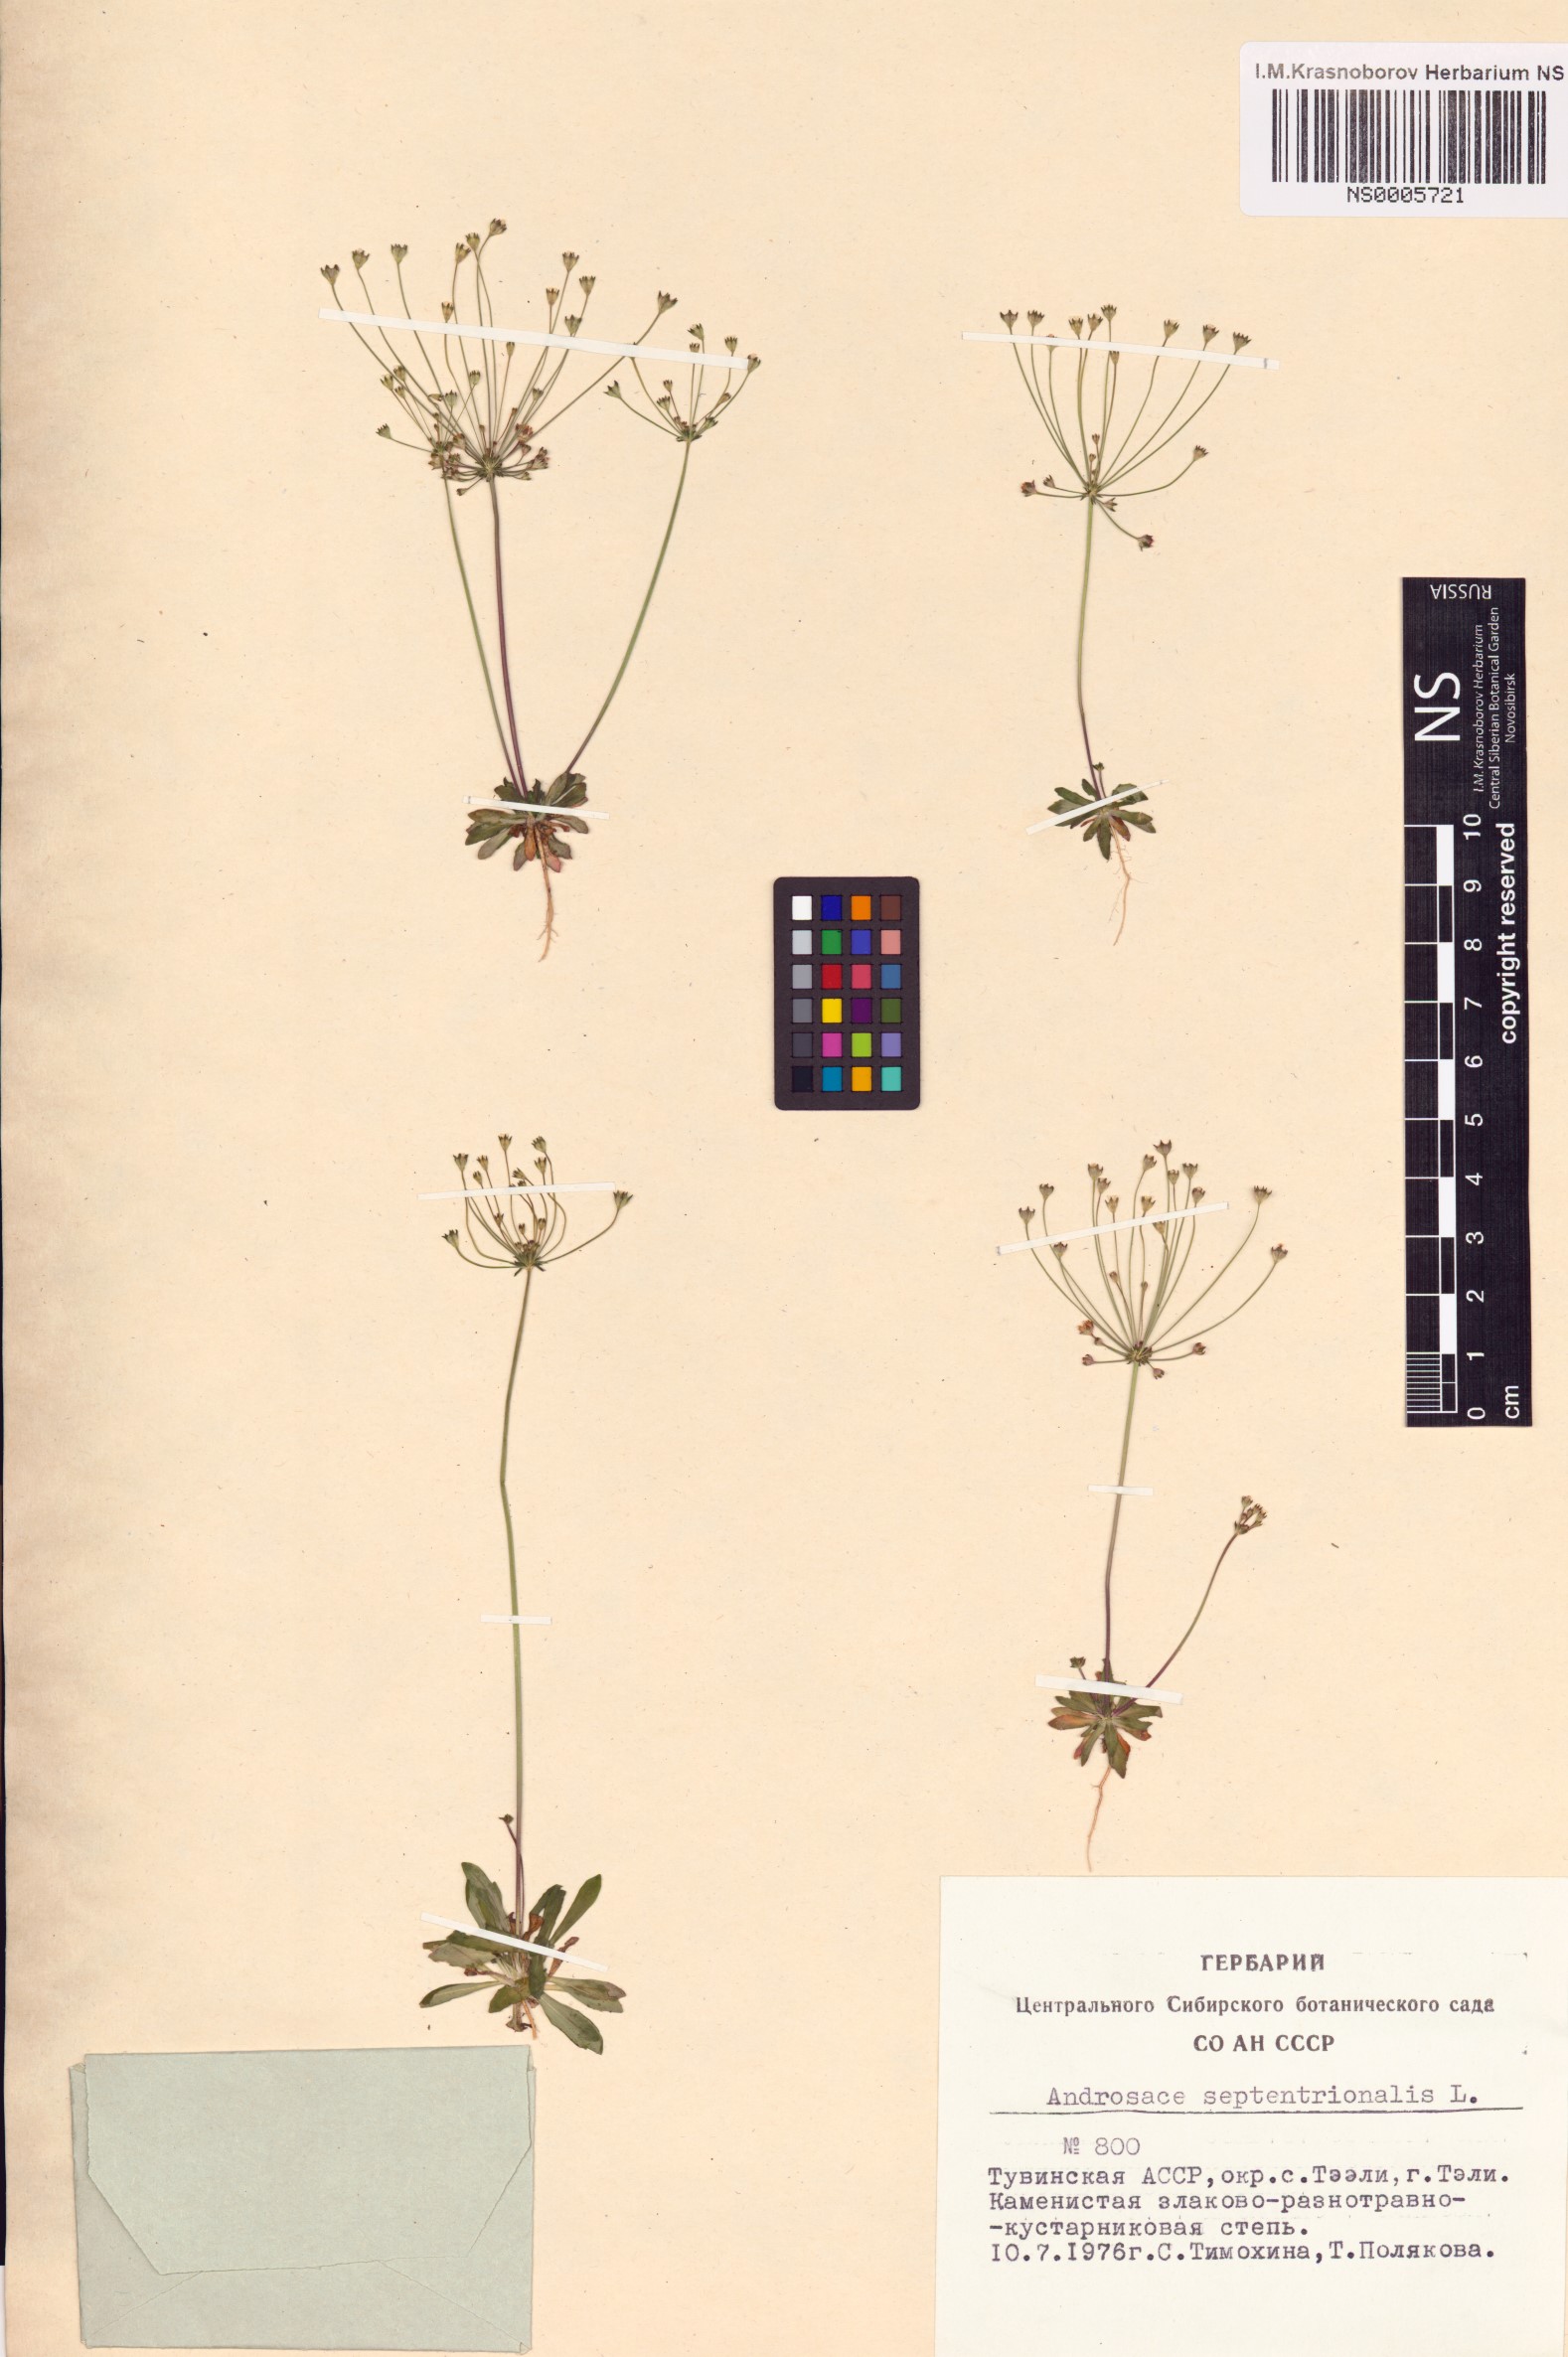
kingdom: Plantae
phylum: Tracheophyta
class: Magnoliopsida
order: Ericales
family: Primulaceae
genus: Androsace
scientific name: Androsace septentrionalis
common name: Hairy northern fairy-candelabra
